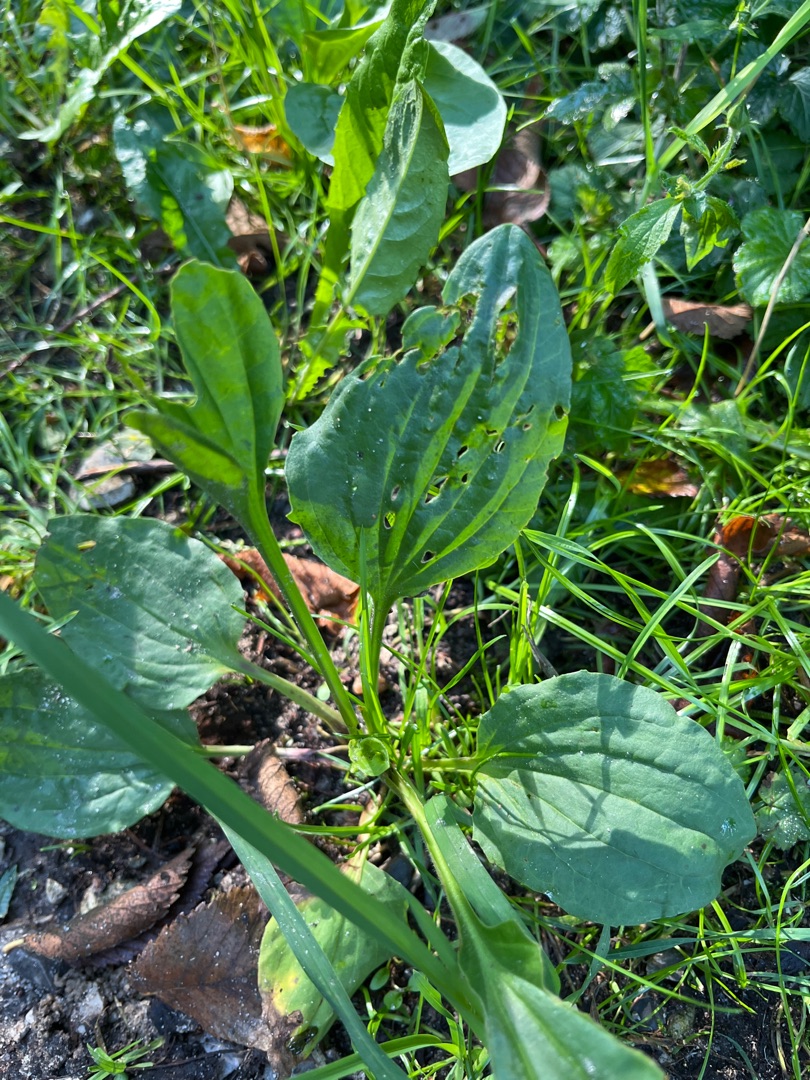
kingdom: Plantae
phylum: Tracheophyta
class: Magnoliopsida
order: Lamiales
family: Plantaginaceae
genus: Plantago
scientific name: Plantago major
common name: Glat vejbred
